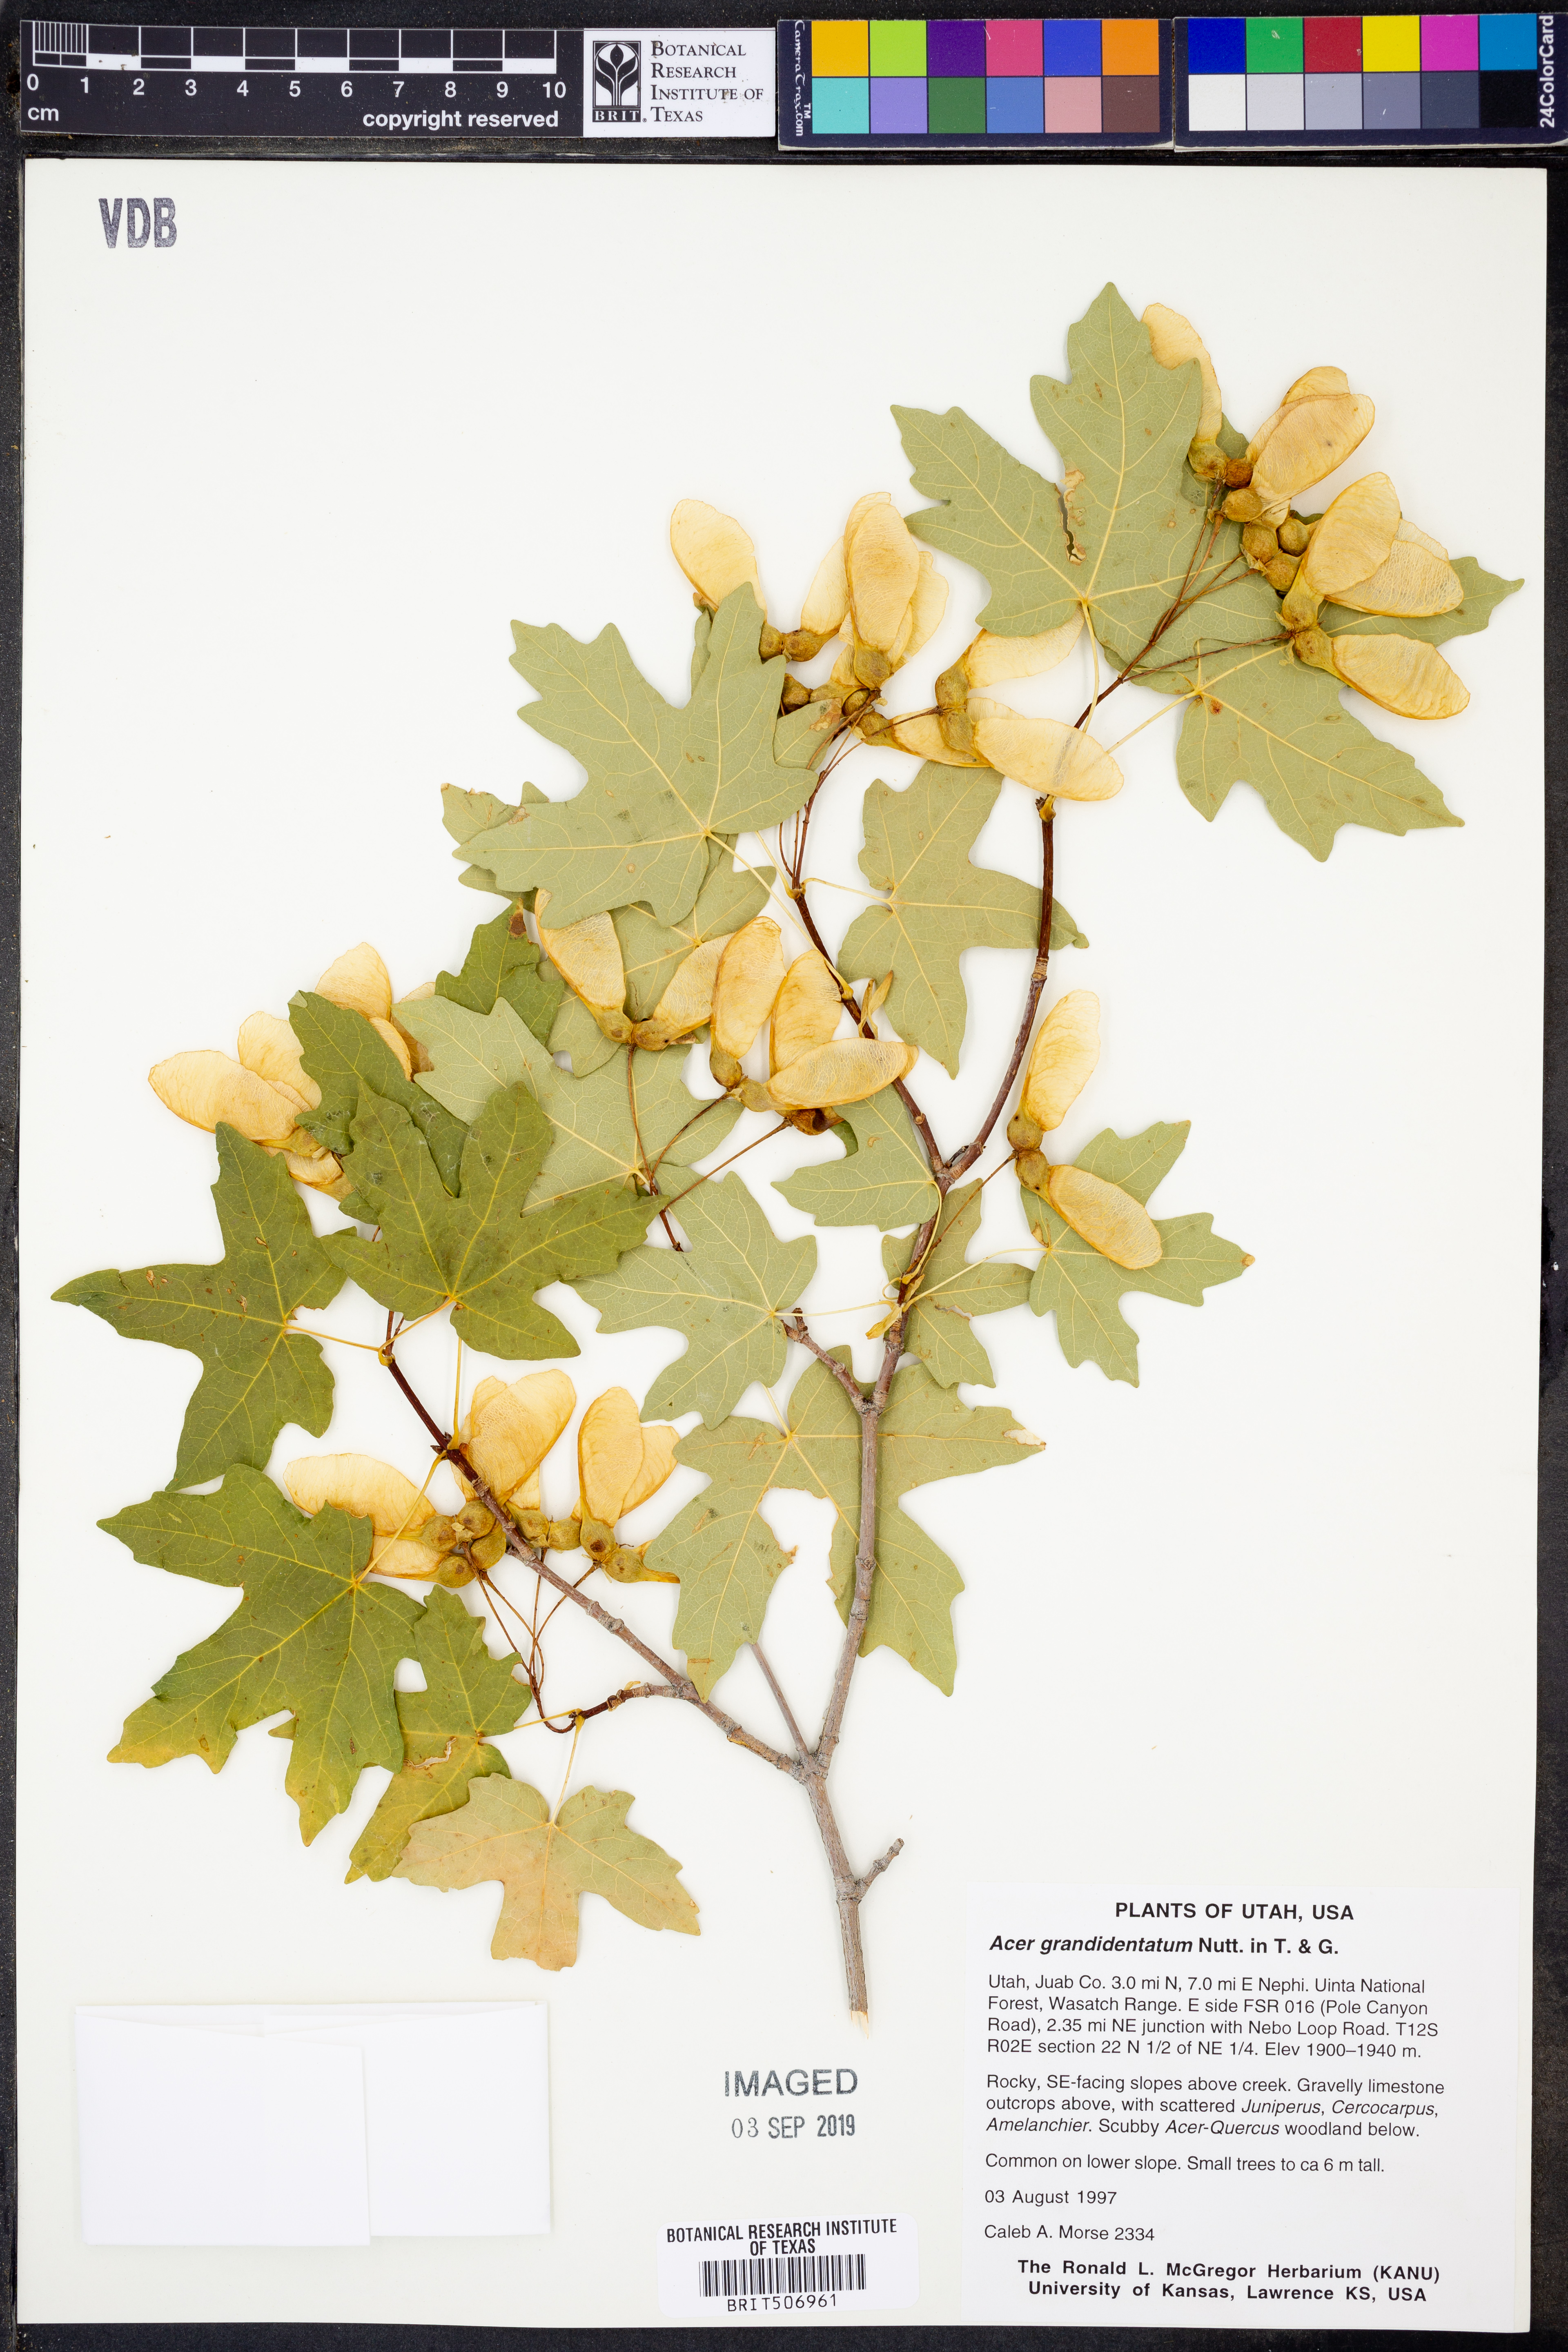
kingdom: Plantae
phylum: Tracheophyta
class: Magnoliopsida
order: Sapindales
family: Sapindaceae
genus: Acer
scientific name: Acer grandidentatum
